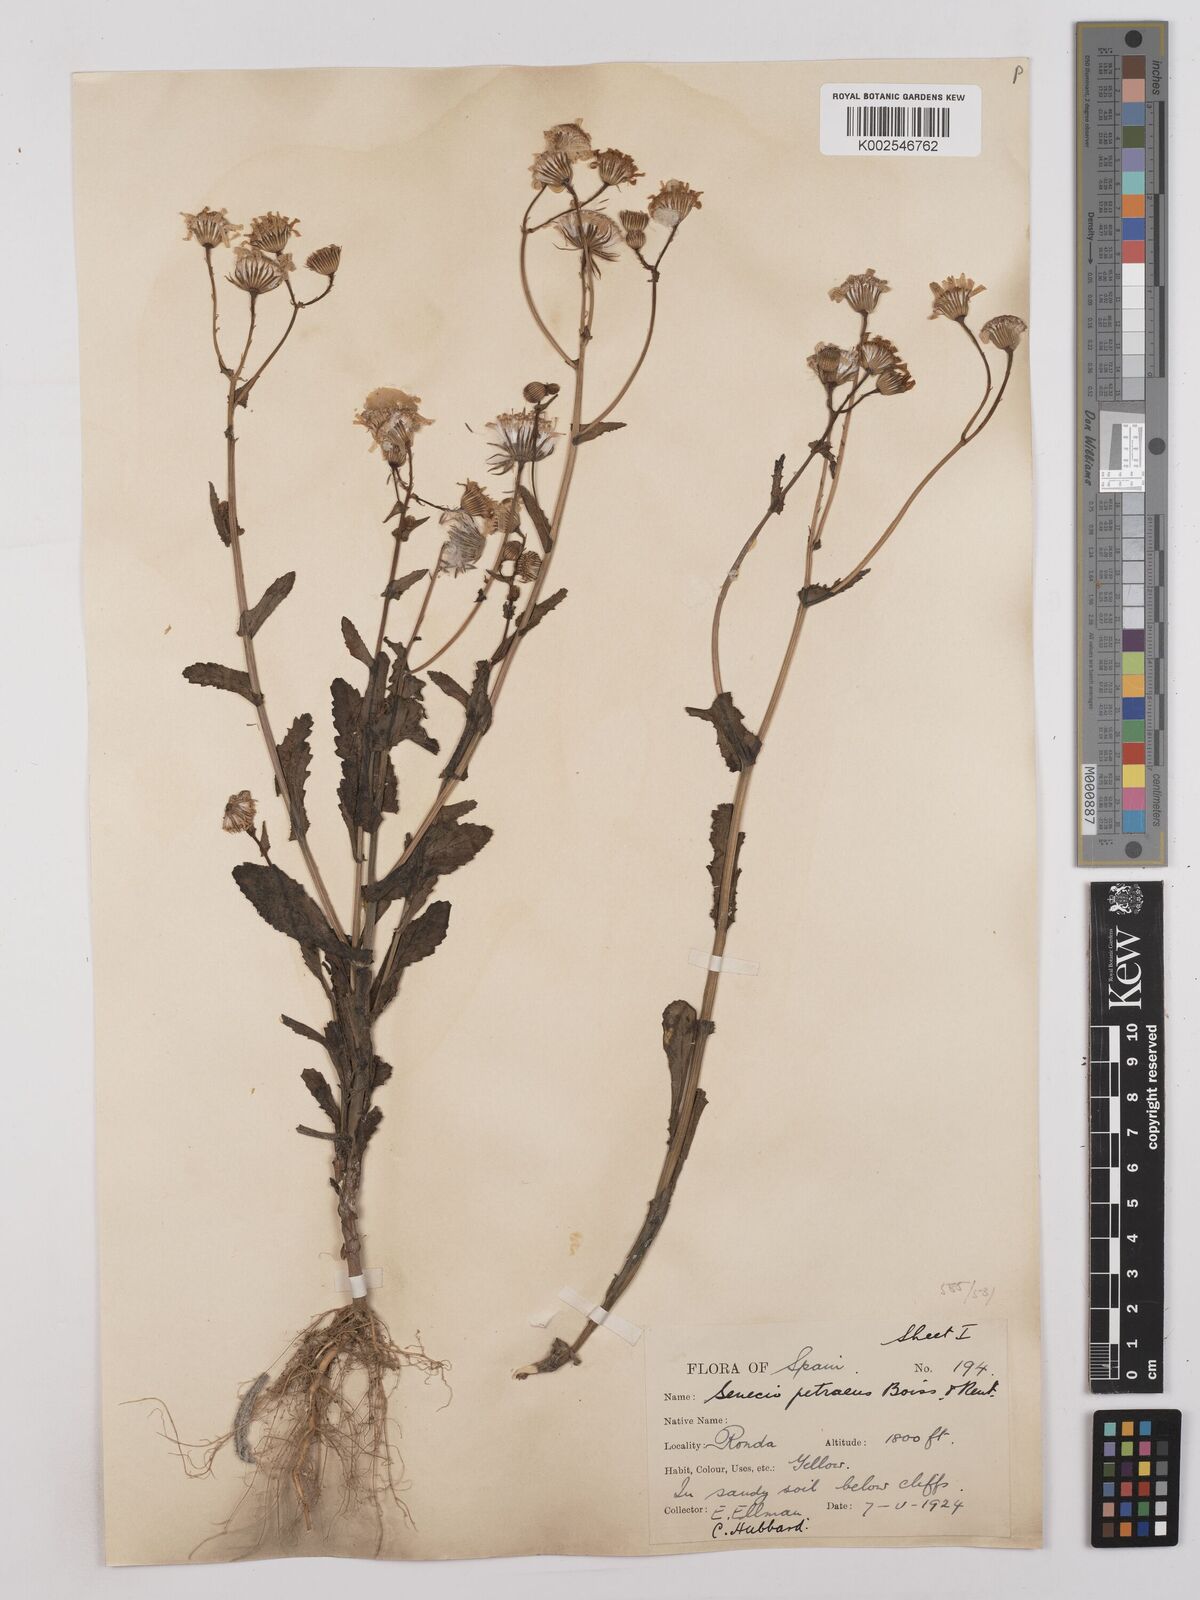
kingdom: Plantae
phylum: Tracheophyta
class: Magnoliopsida
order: Asterales
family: Asteraceae
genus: Kleinia
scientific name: Kleinia petraea
